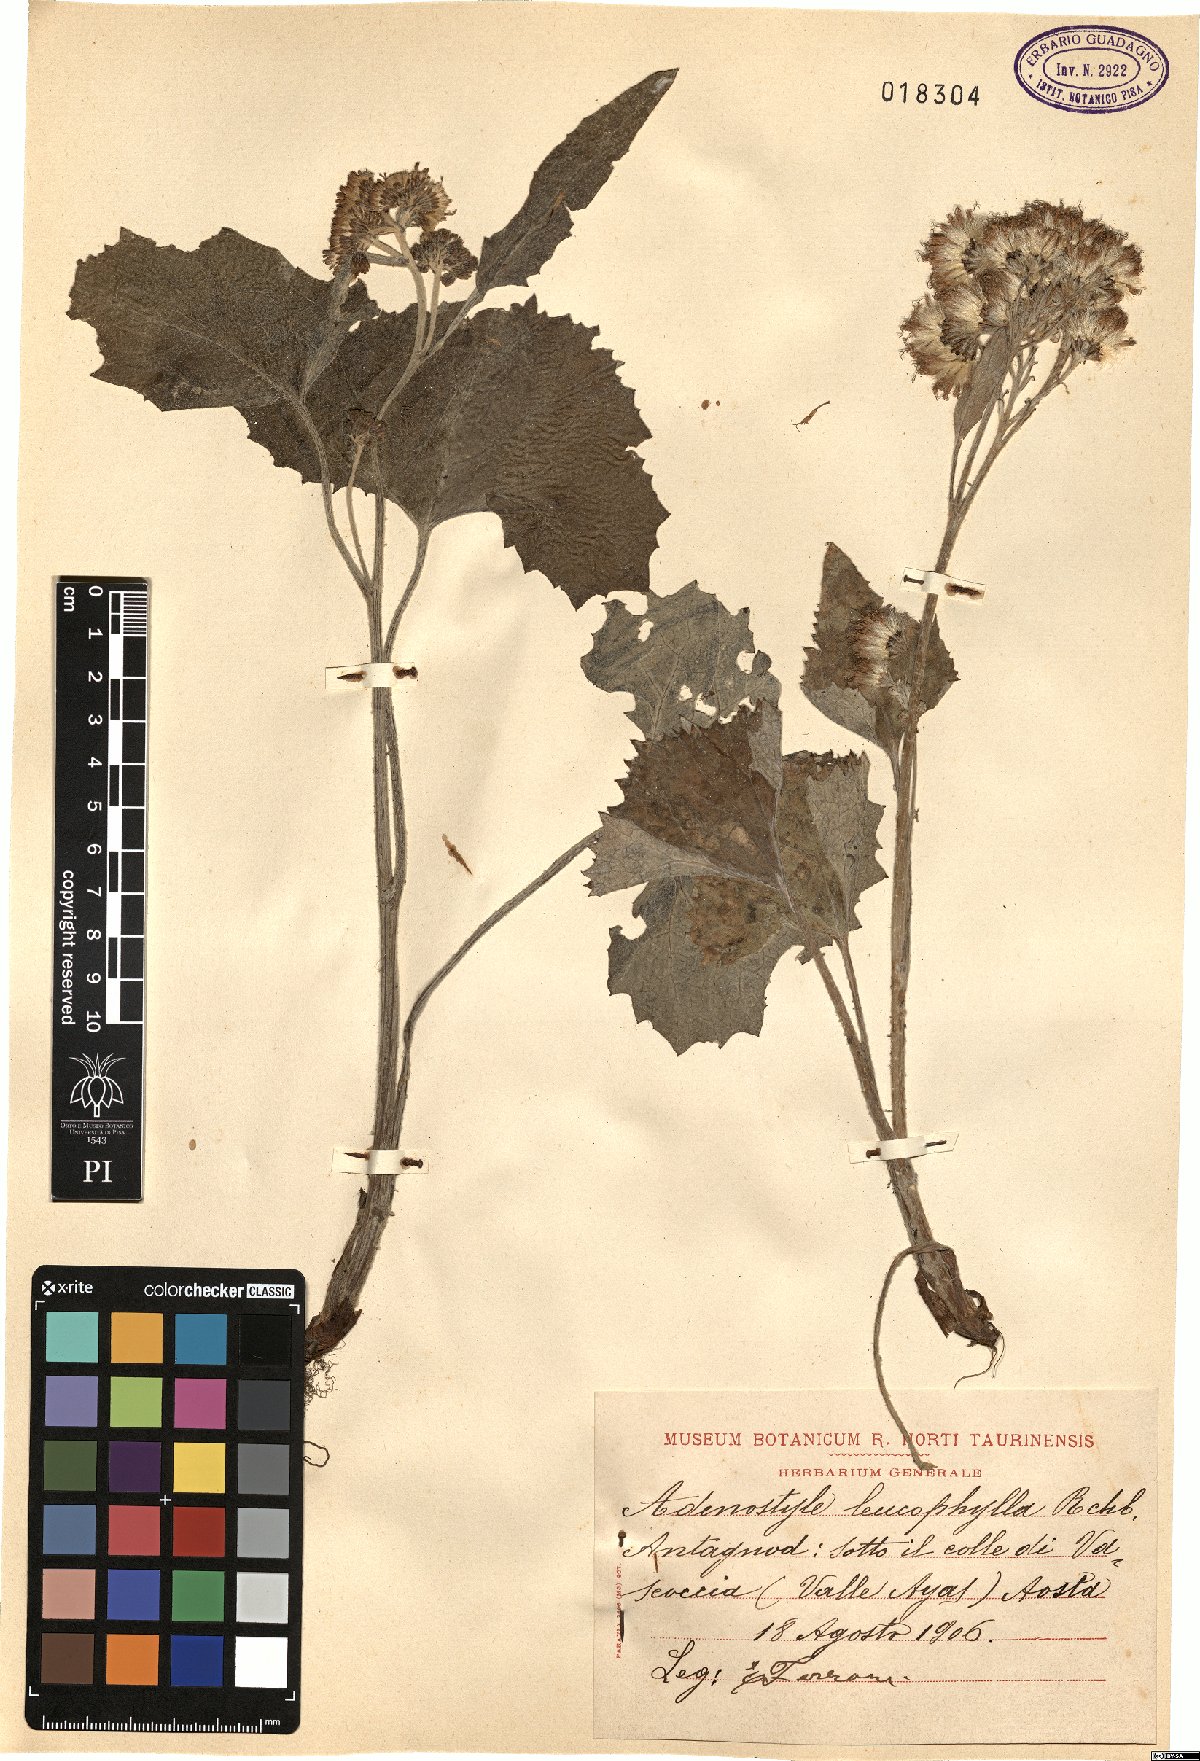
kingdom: Plantae
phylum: Tracheophyta
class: Magnoliopsida
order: Asterales
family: Asteraceae
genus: Adenostyles
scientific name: Adenostyles leucophylla
